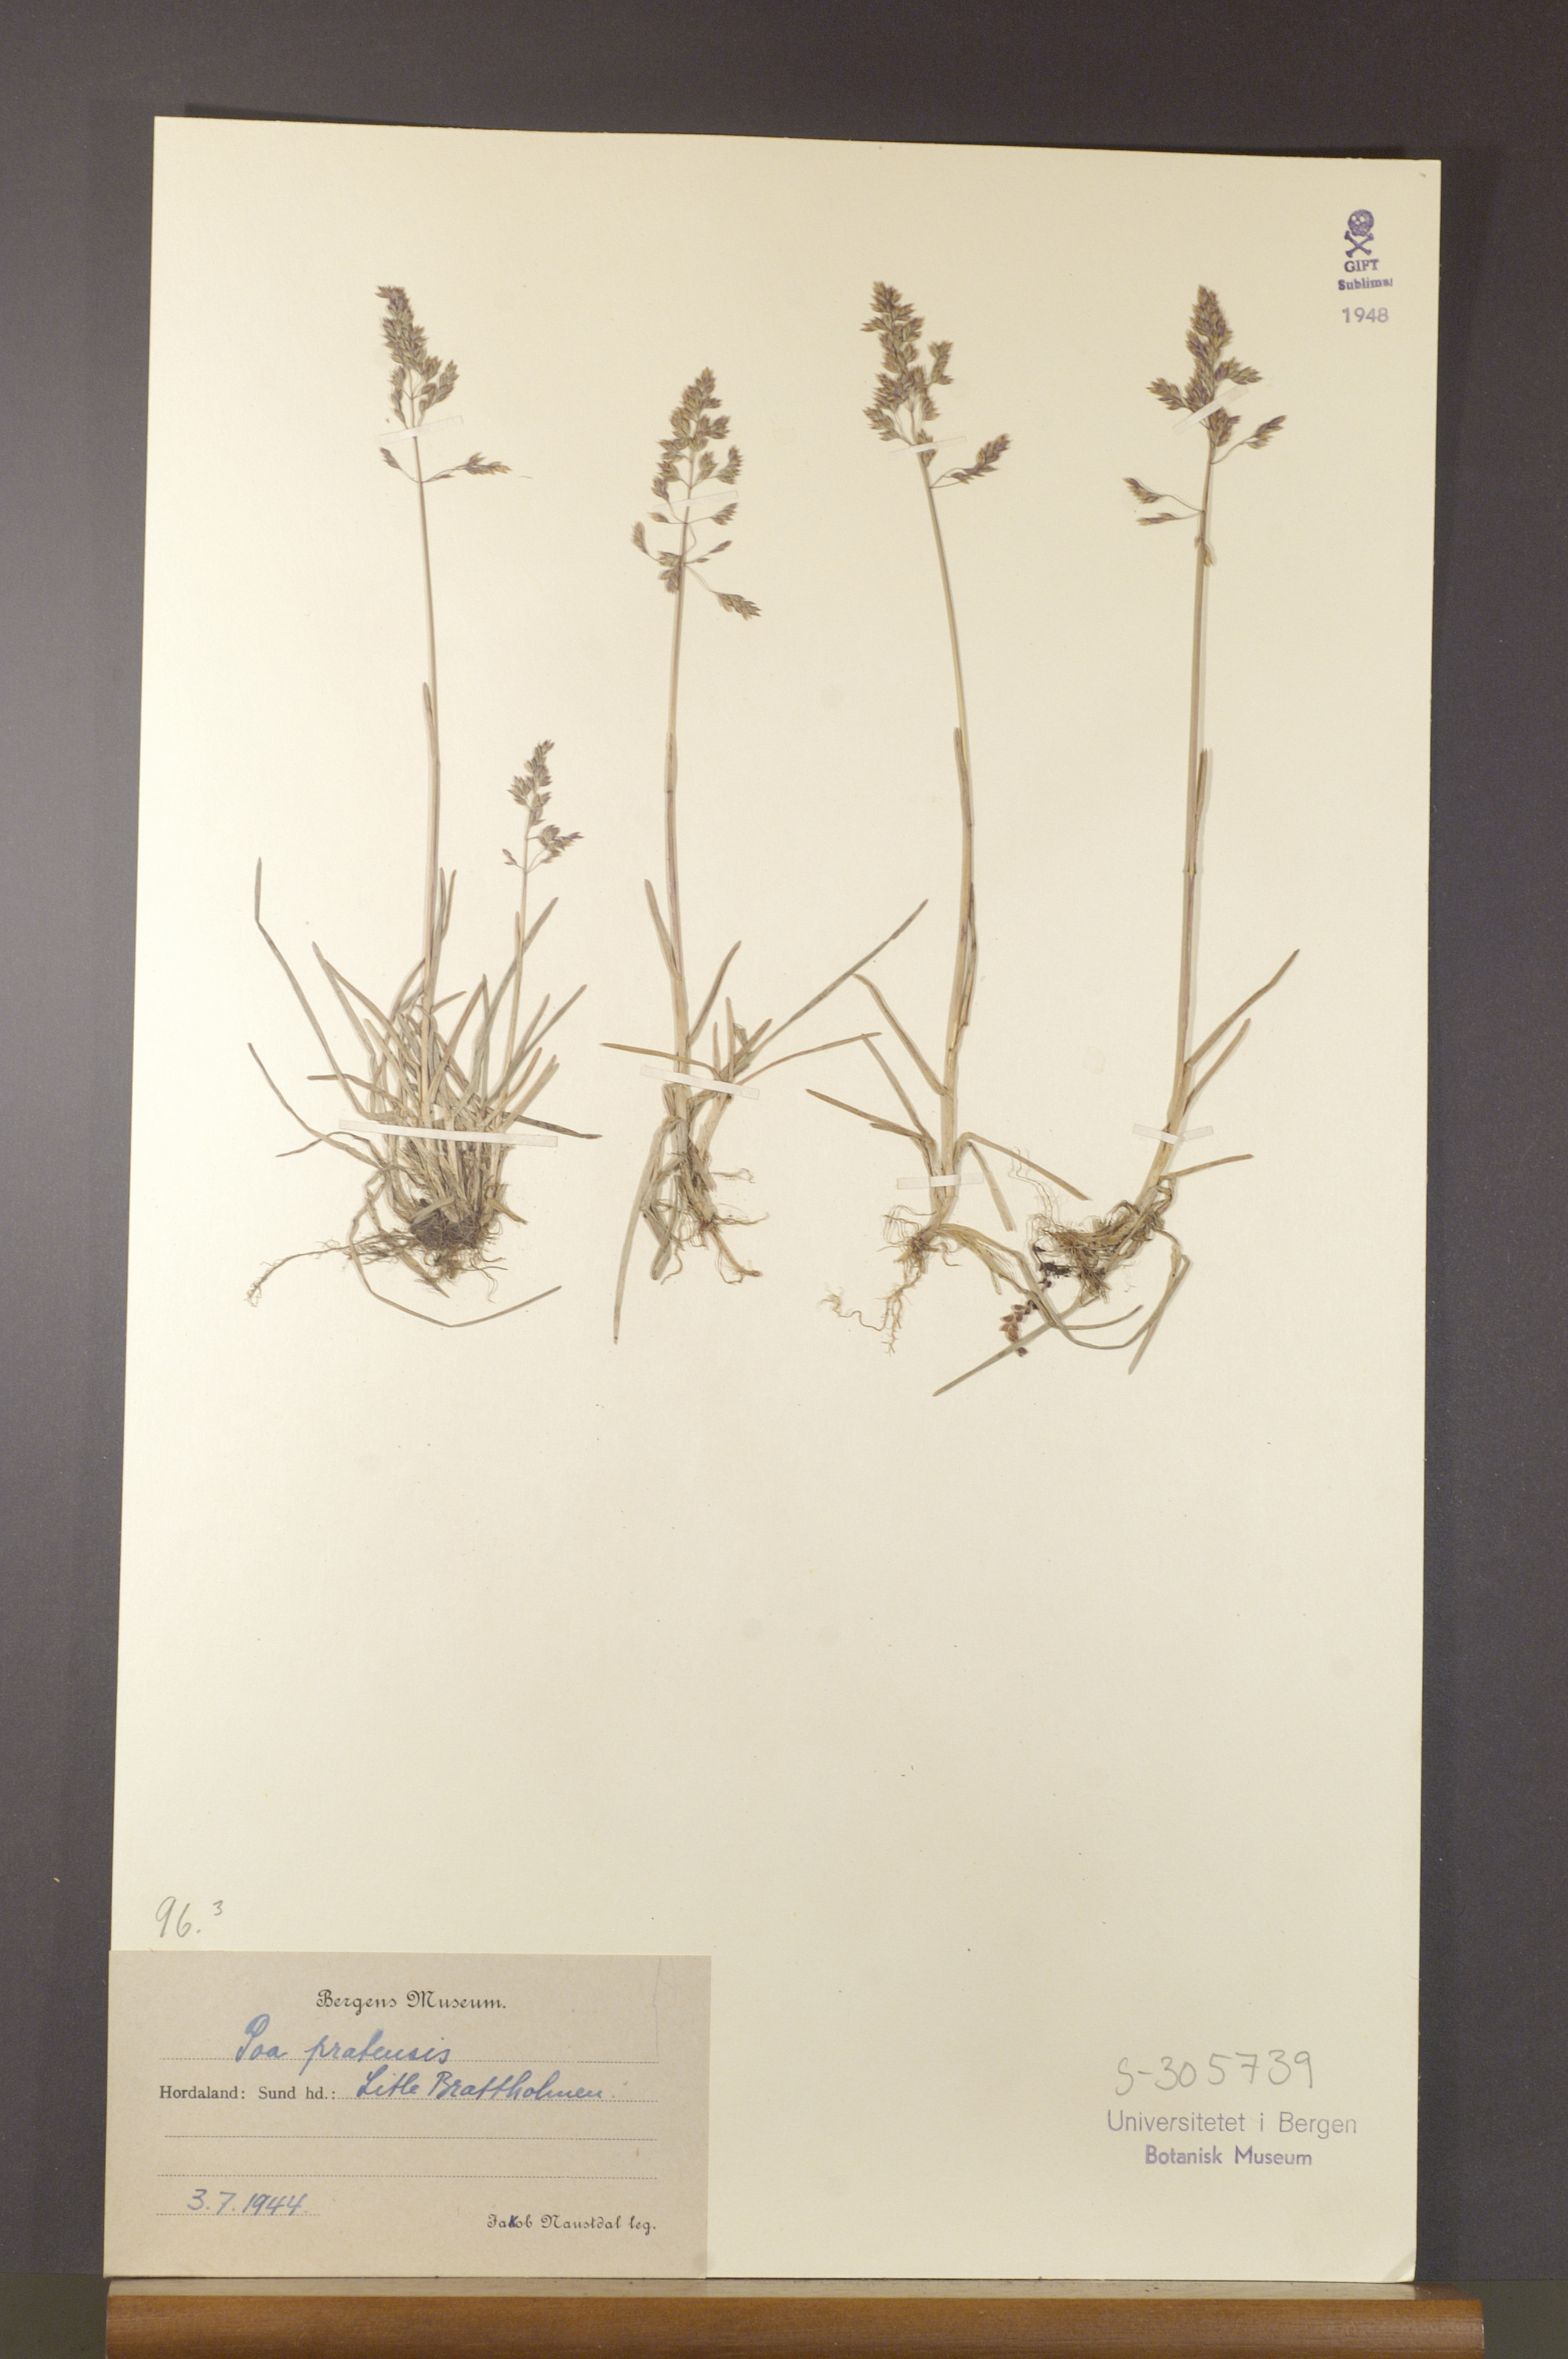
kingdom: Plantae
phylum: Tracheophyta
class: Liliopsida
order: Poales
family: Poaceae
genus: Poa
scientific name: Poa pratensis
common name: Kentucky bluegrass
